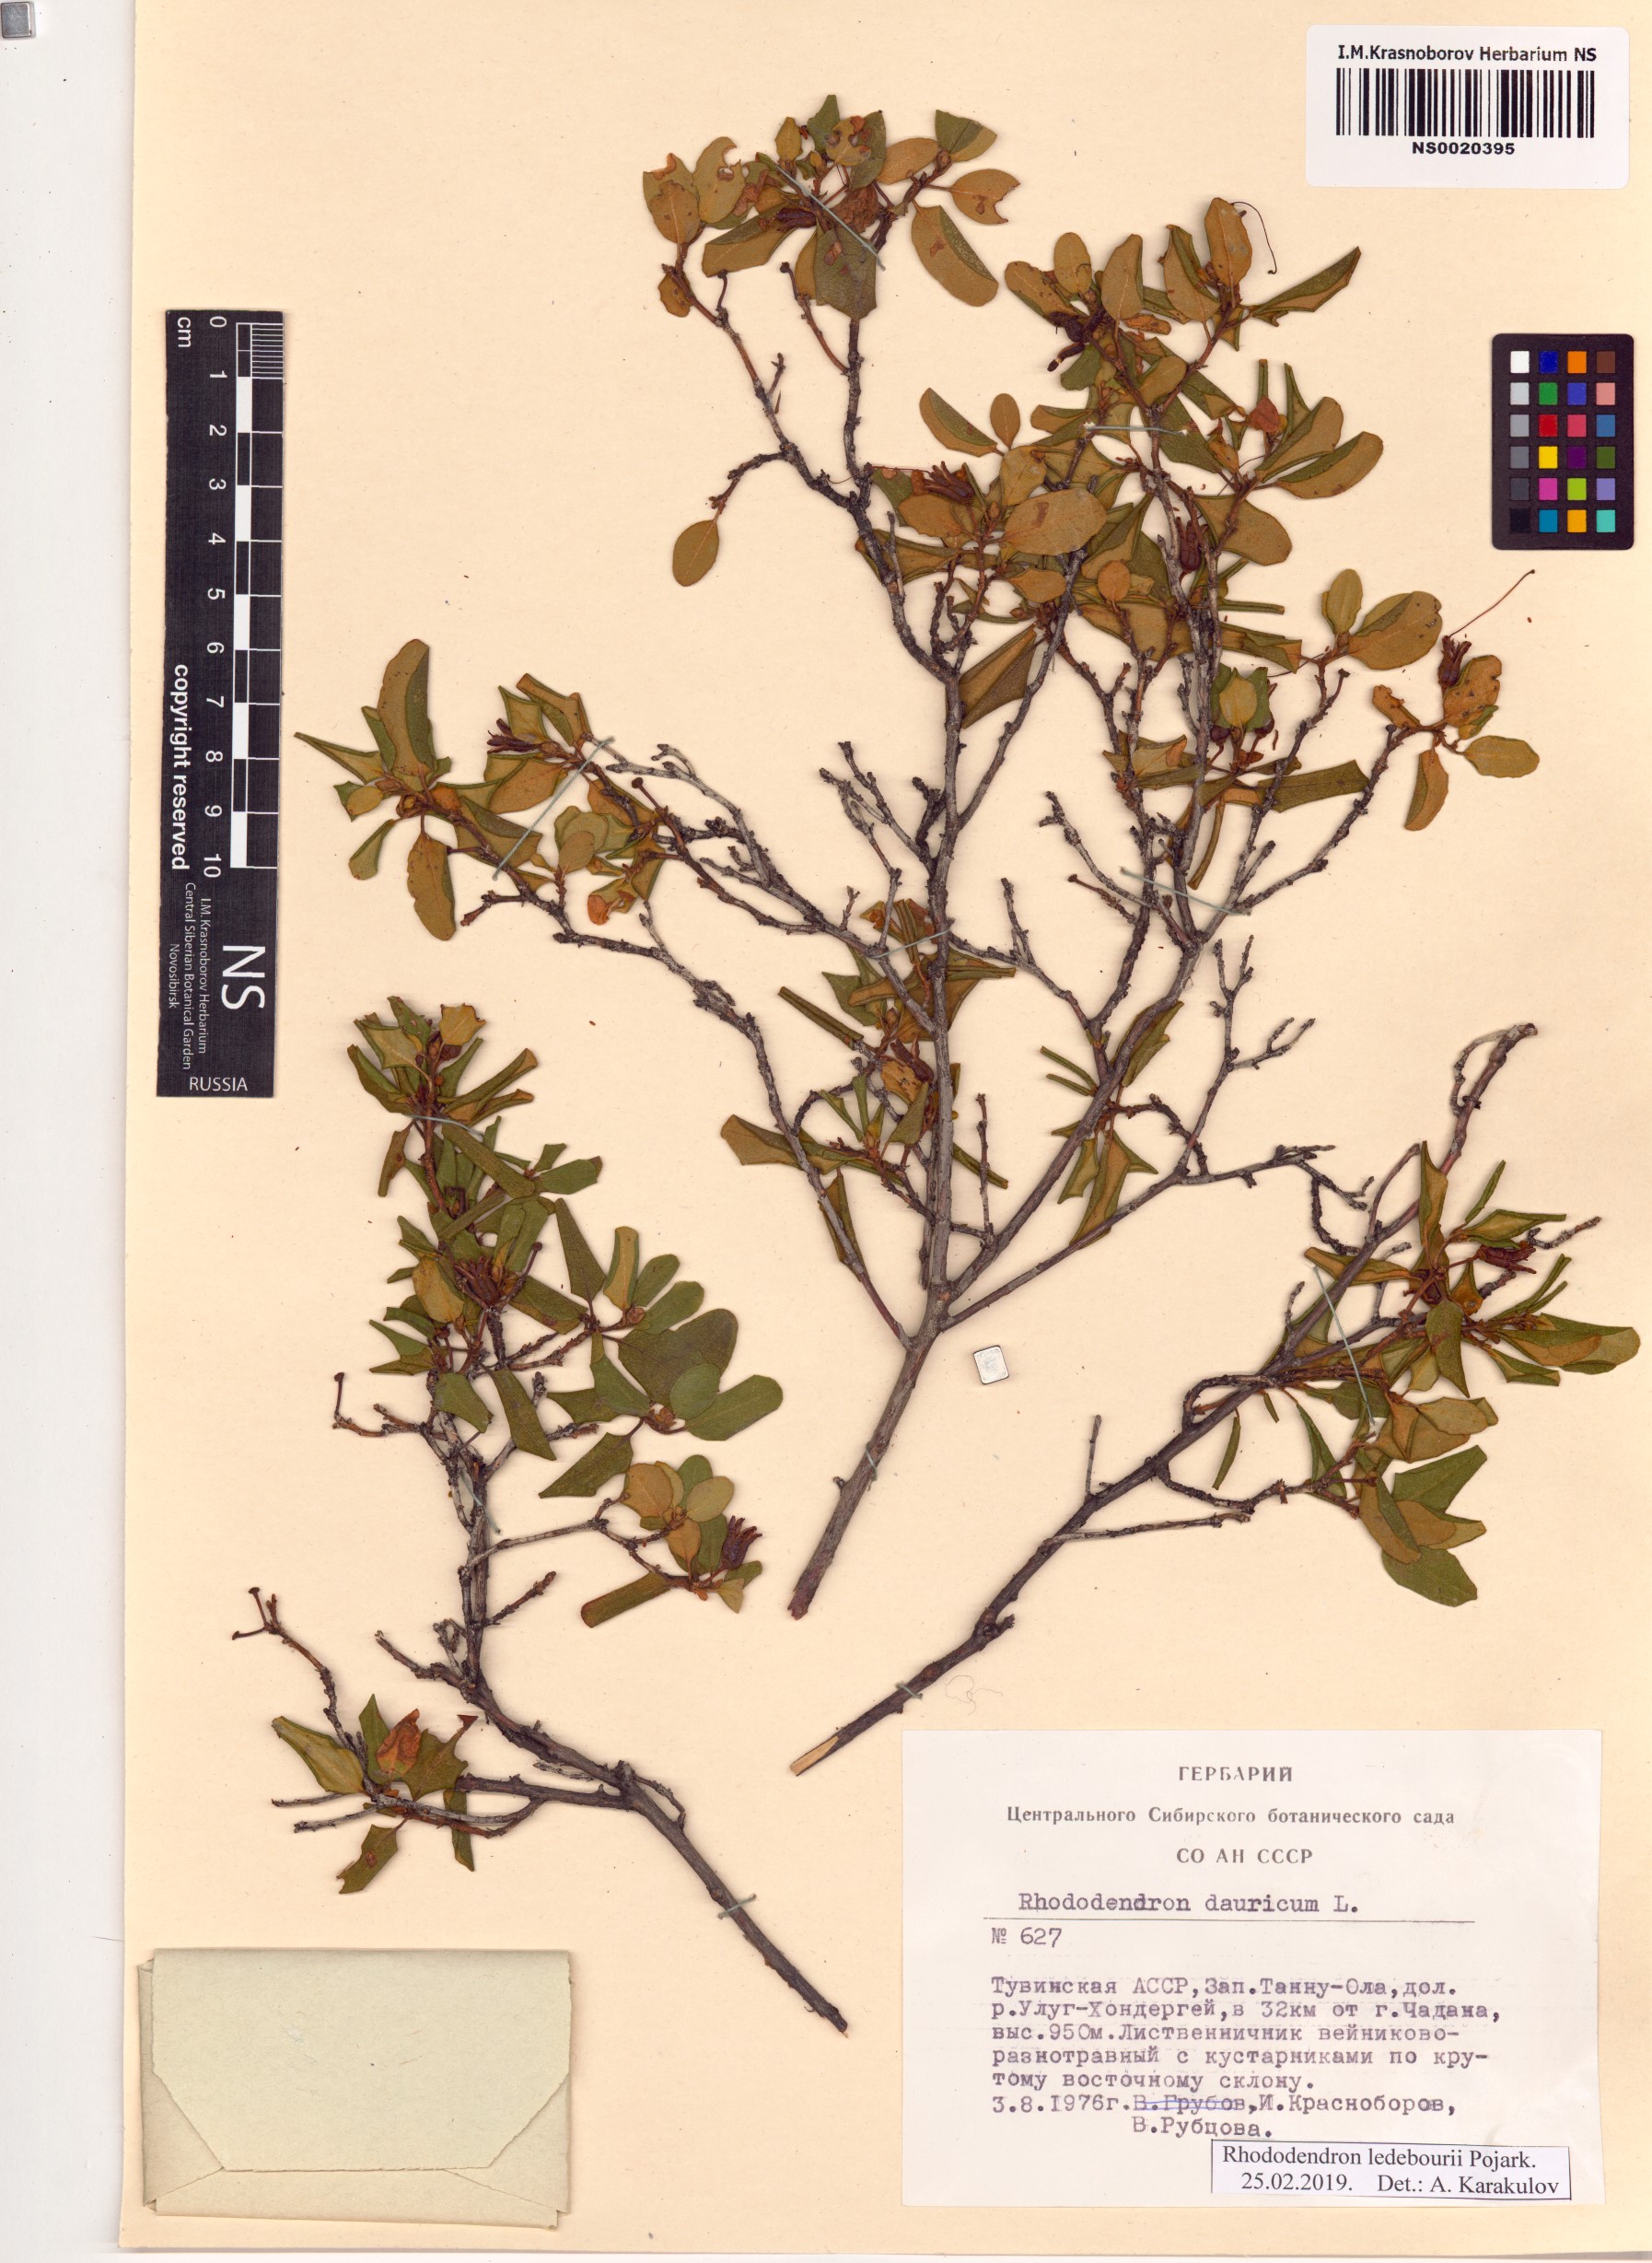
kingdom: Plantae
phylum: Tracheophyta
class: Magnoliopsida
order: Ericales
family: Ericaceae
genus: Rhododendron
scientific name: Rhododendron dauricum
